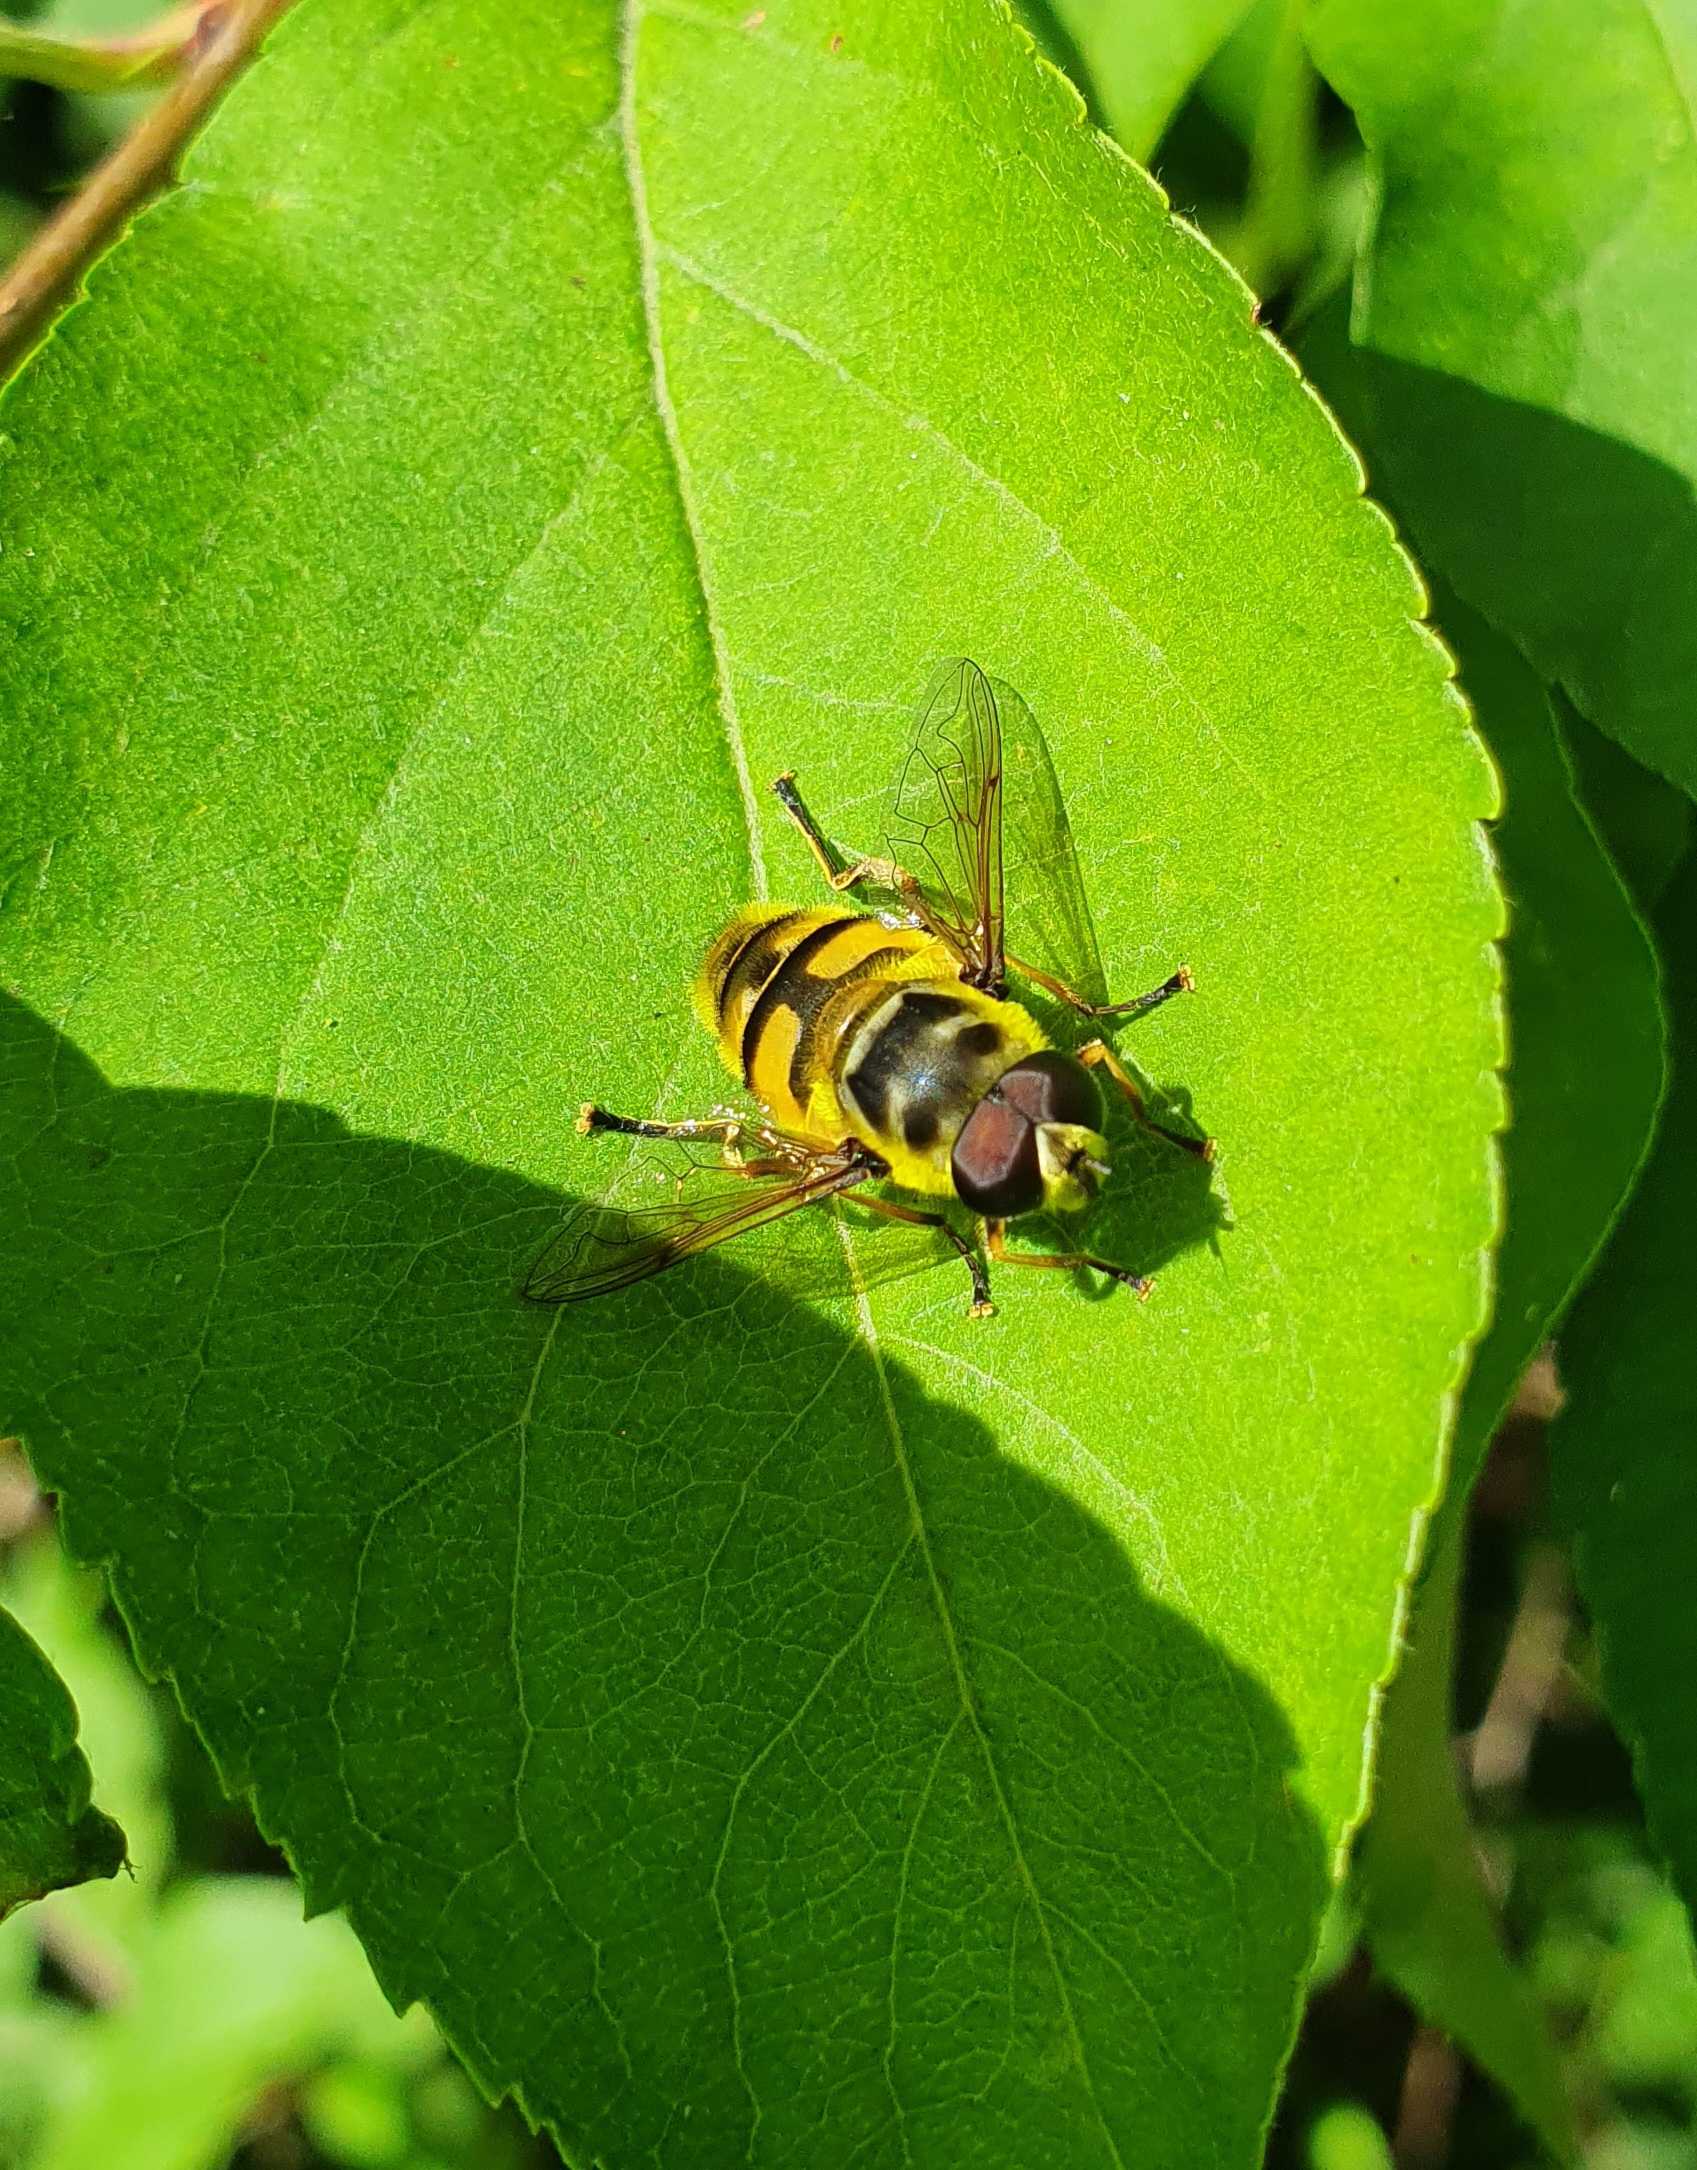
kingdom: Animalia
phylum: Arthropoda
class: Insecta
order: Diptera
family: Syrphidae
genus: Myathropa
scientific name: Myathropa florea
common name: Dødningehoved-svirreflue
